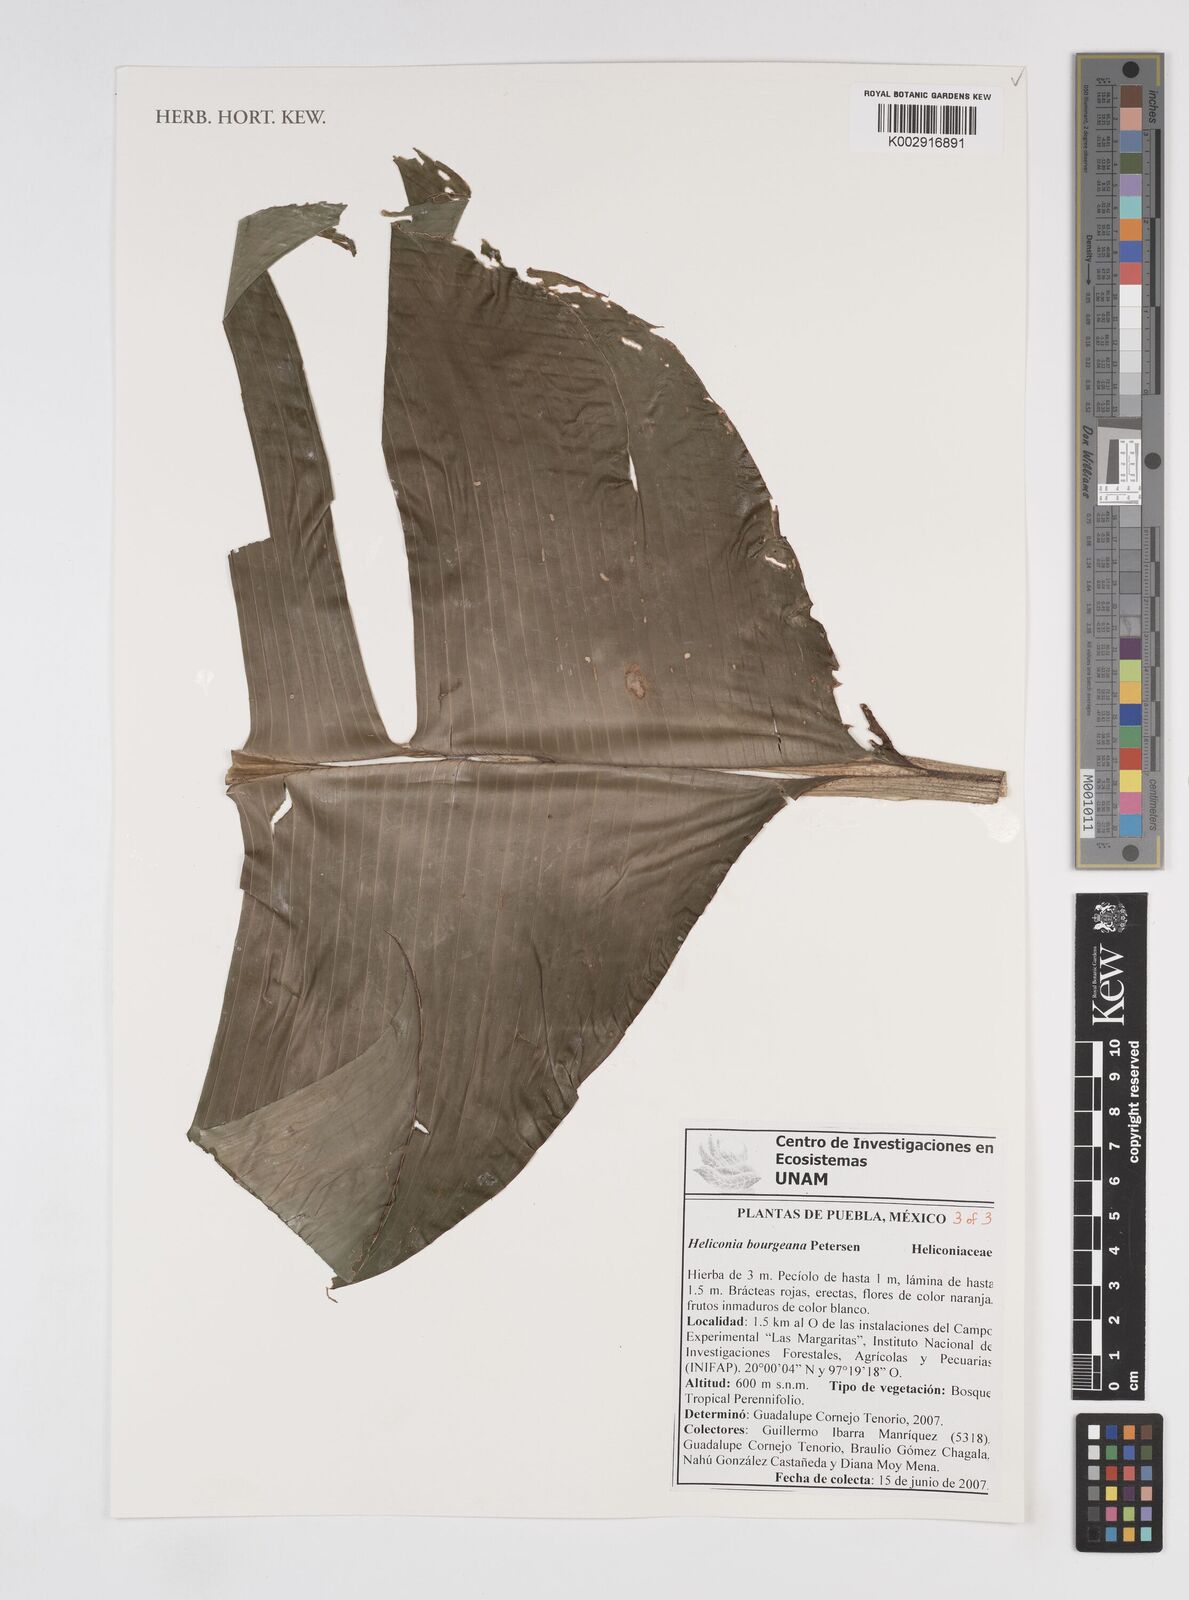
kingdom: Plantae
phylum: Tracheophyta
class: Liliopsida
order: Zingiberales
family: Heliconiaceae
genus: Heliconia
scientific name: Heliconia bourgaeana
